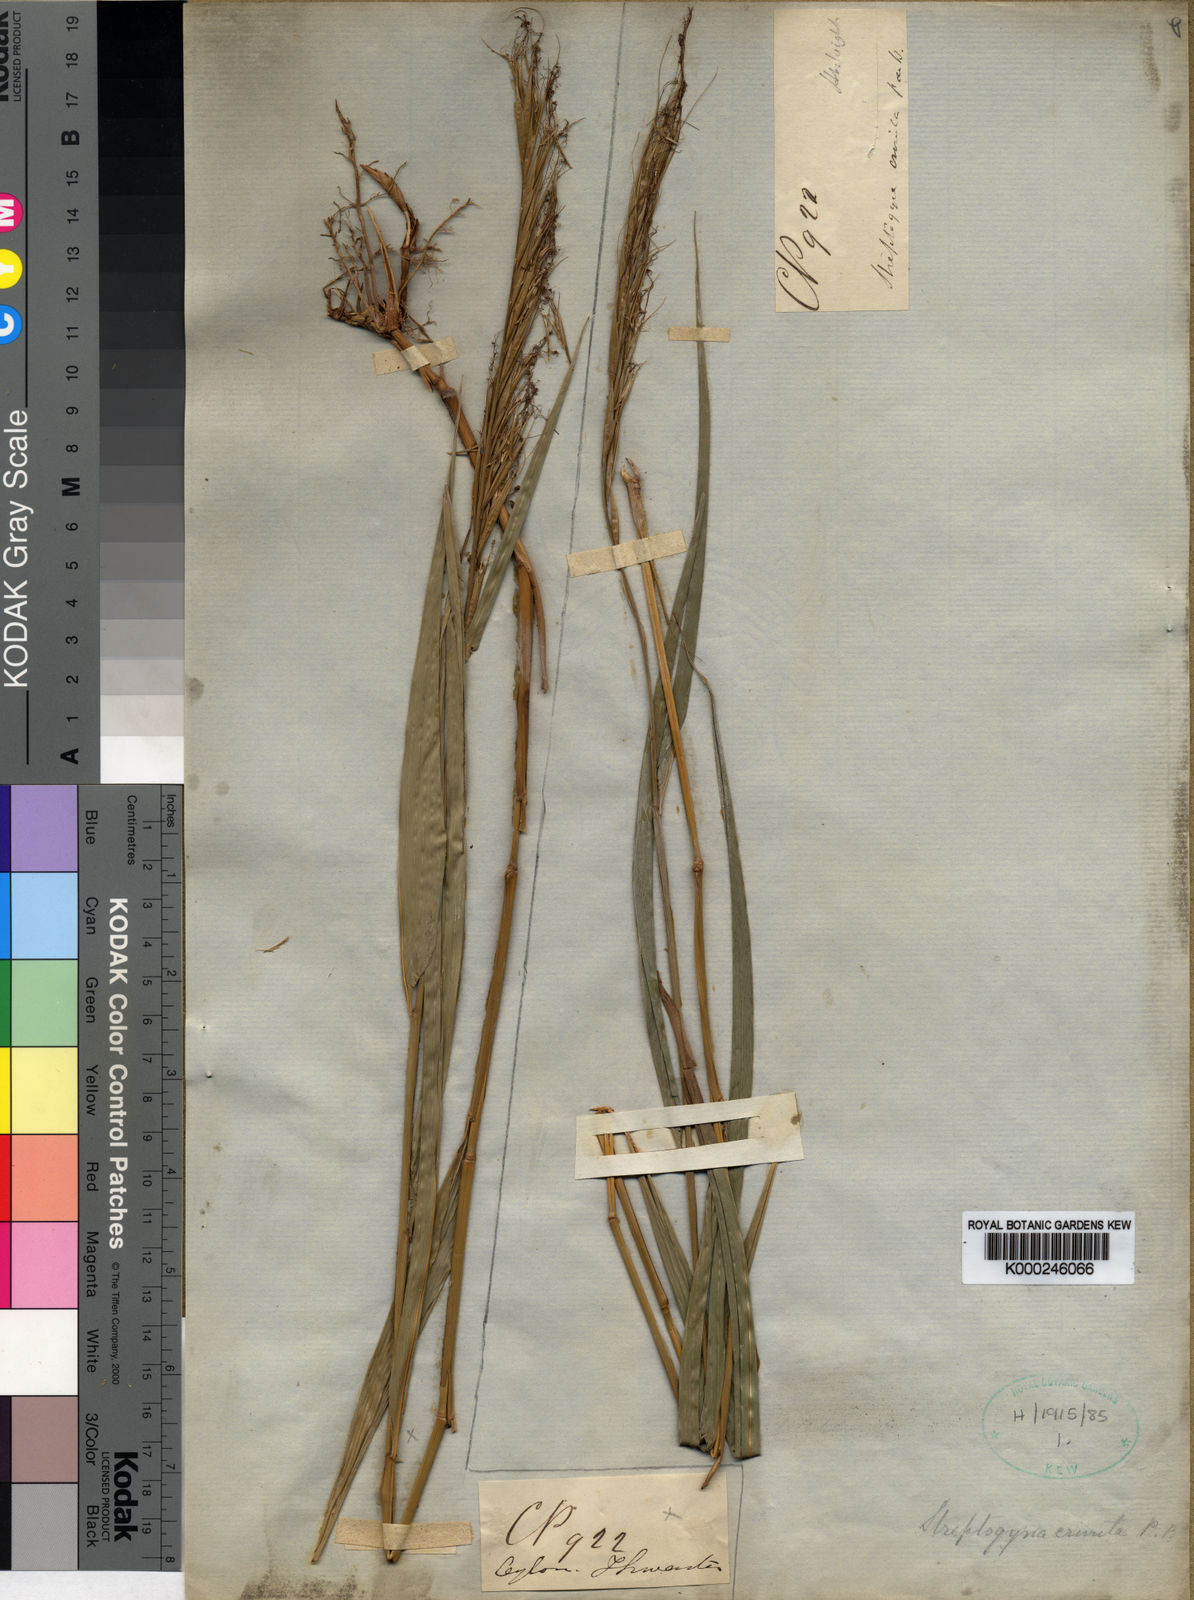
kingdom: Plantae
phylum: Tracheophyta
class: Liliopsida
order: Poales
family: Poaceae
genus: Streptogyna
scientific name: Streptogyna crinita
